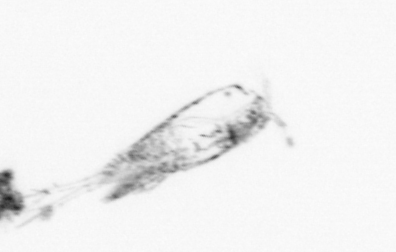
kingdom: Animalia
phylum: Arthropoda
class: Copepoda
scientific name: Copepoda
